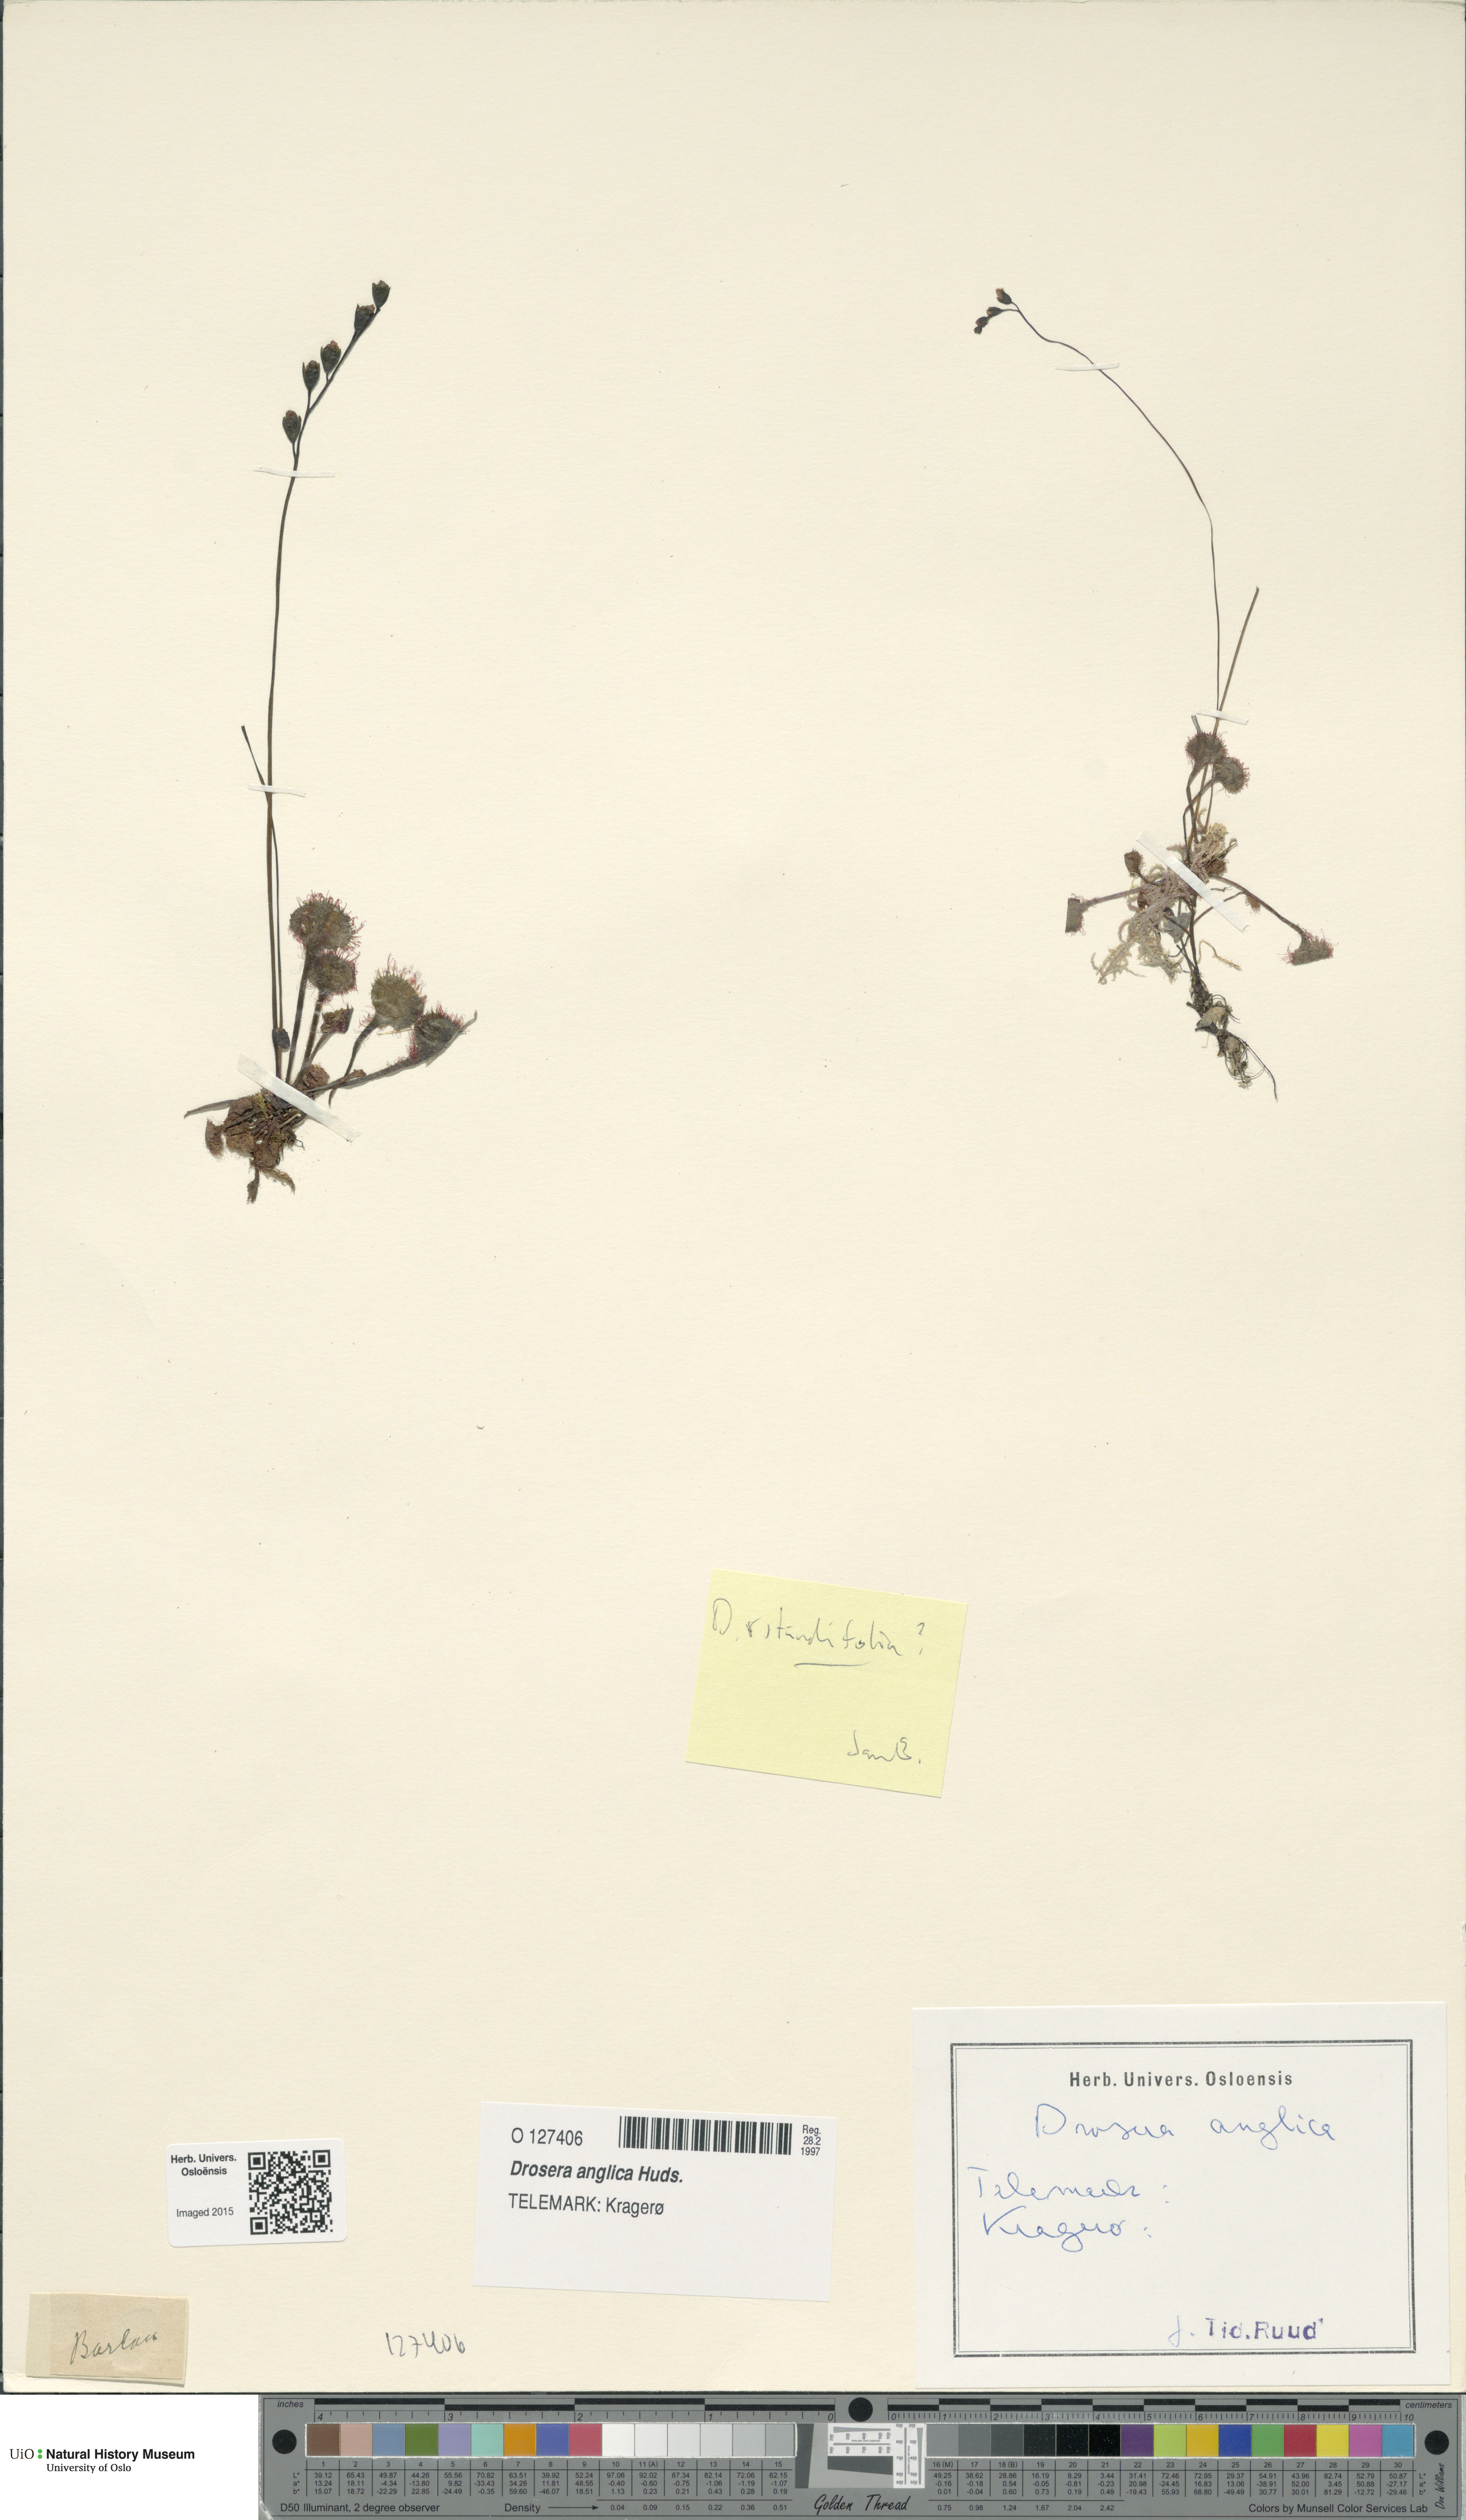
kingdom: Plantae
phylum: Tracheophyta
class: Magnoliopsida
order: Caryophyllales
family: Droseraceae
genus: Drosera
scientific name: Drosera anglica
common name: Great sundew
